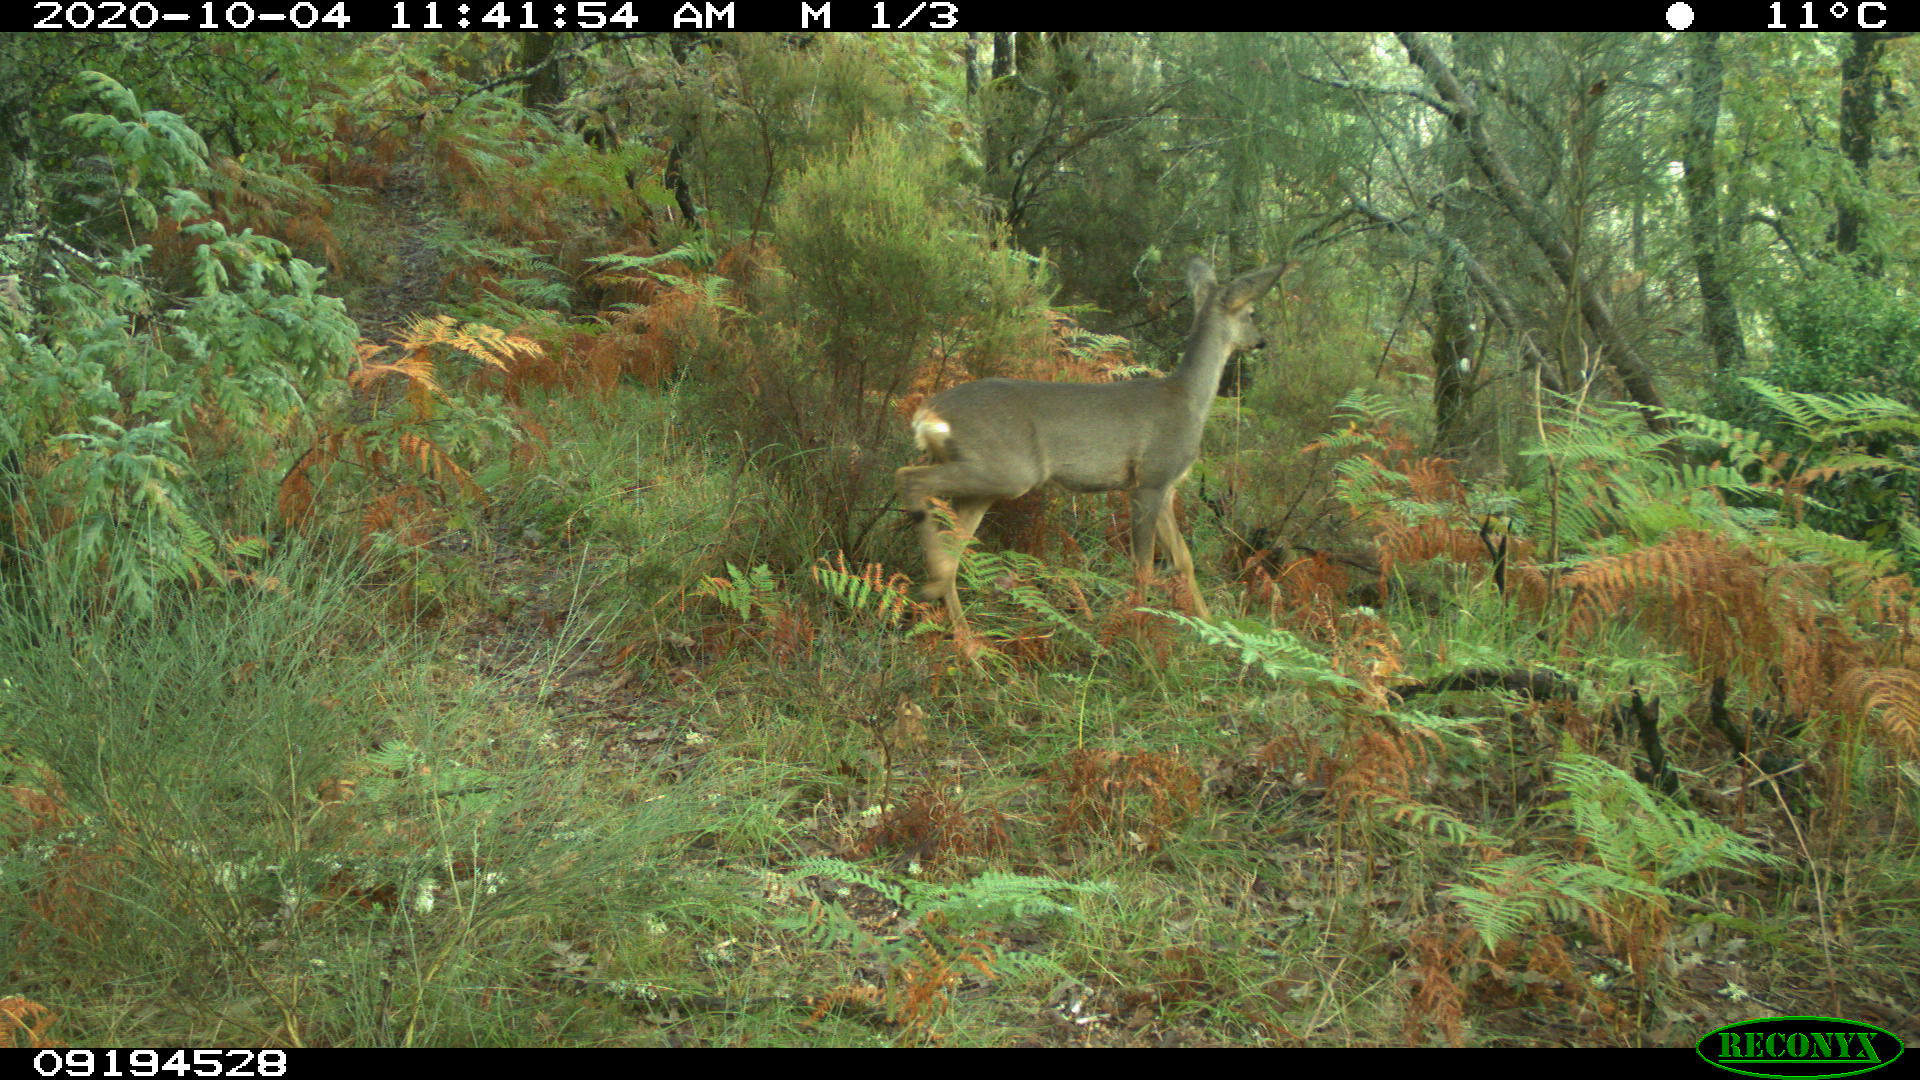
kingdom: Animalia
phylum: Chordata
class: Mammalia
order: Artiodactyla
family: Cervidae
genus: Capreolus
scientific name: Capreolus capreolus
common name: Western roe deer
